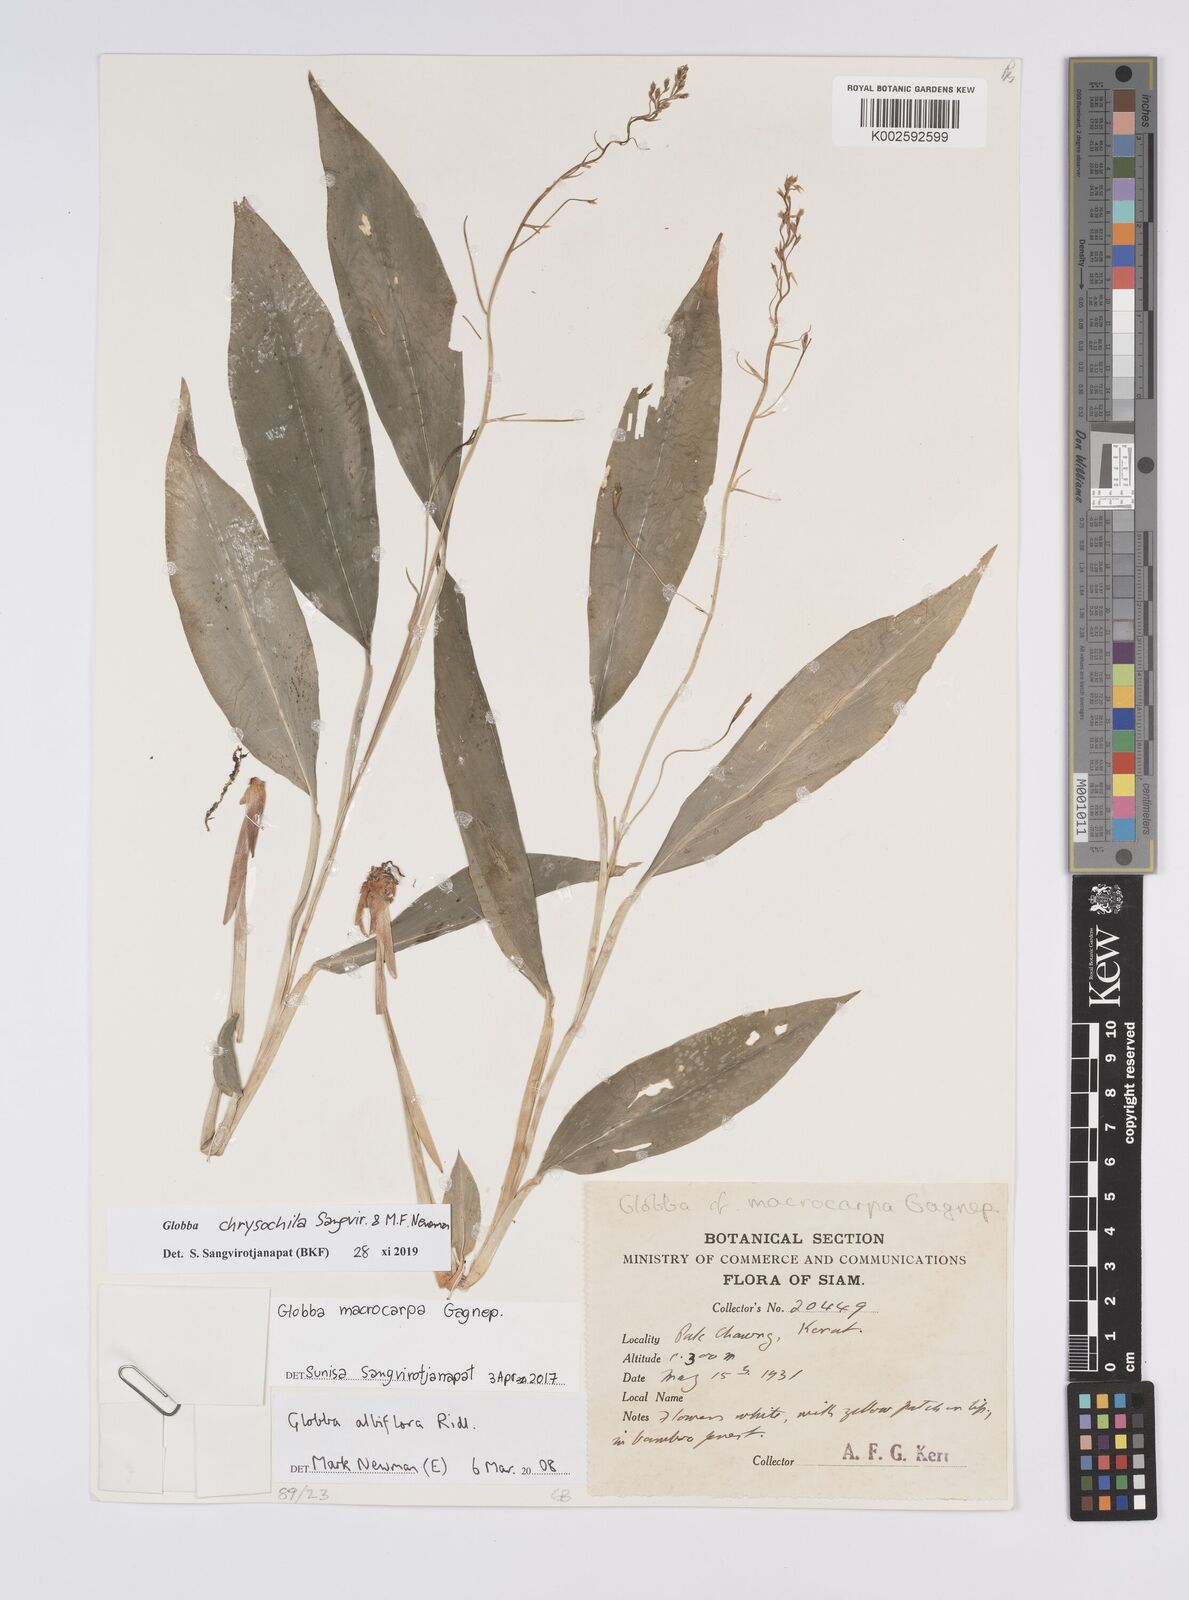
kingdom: Plantae
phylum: Tracheophyta
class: Liliopsida
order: Zingiberales
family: Zingiberaceae
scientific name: Zingiberaceae
